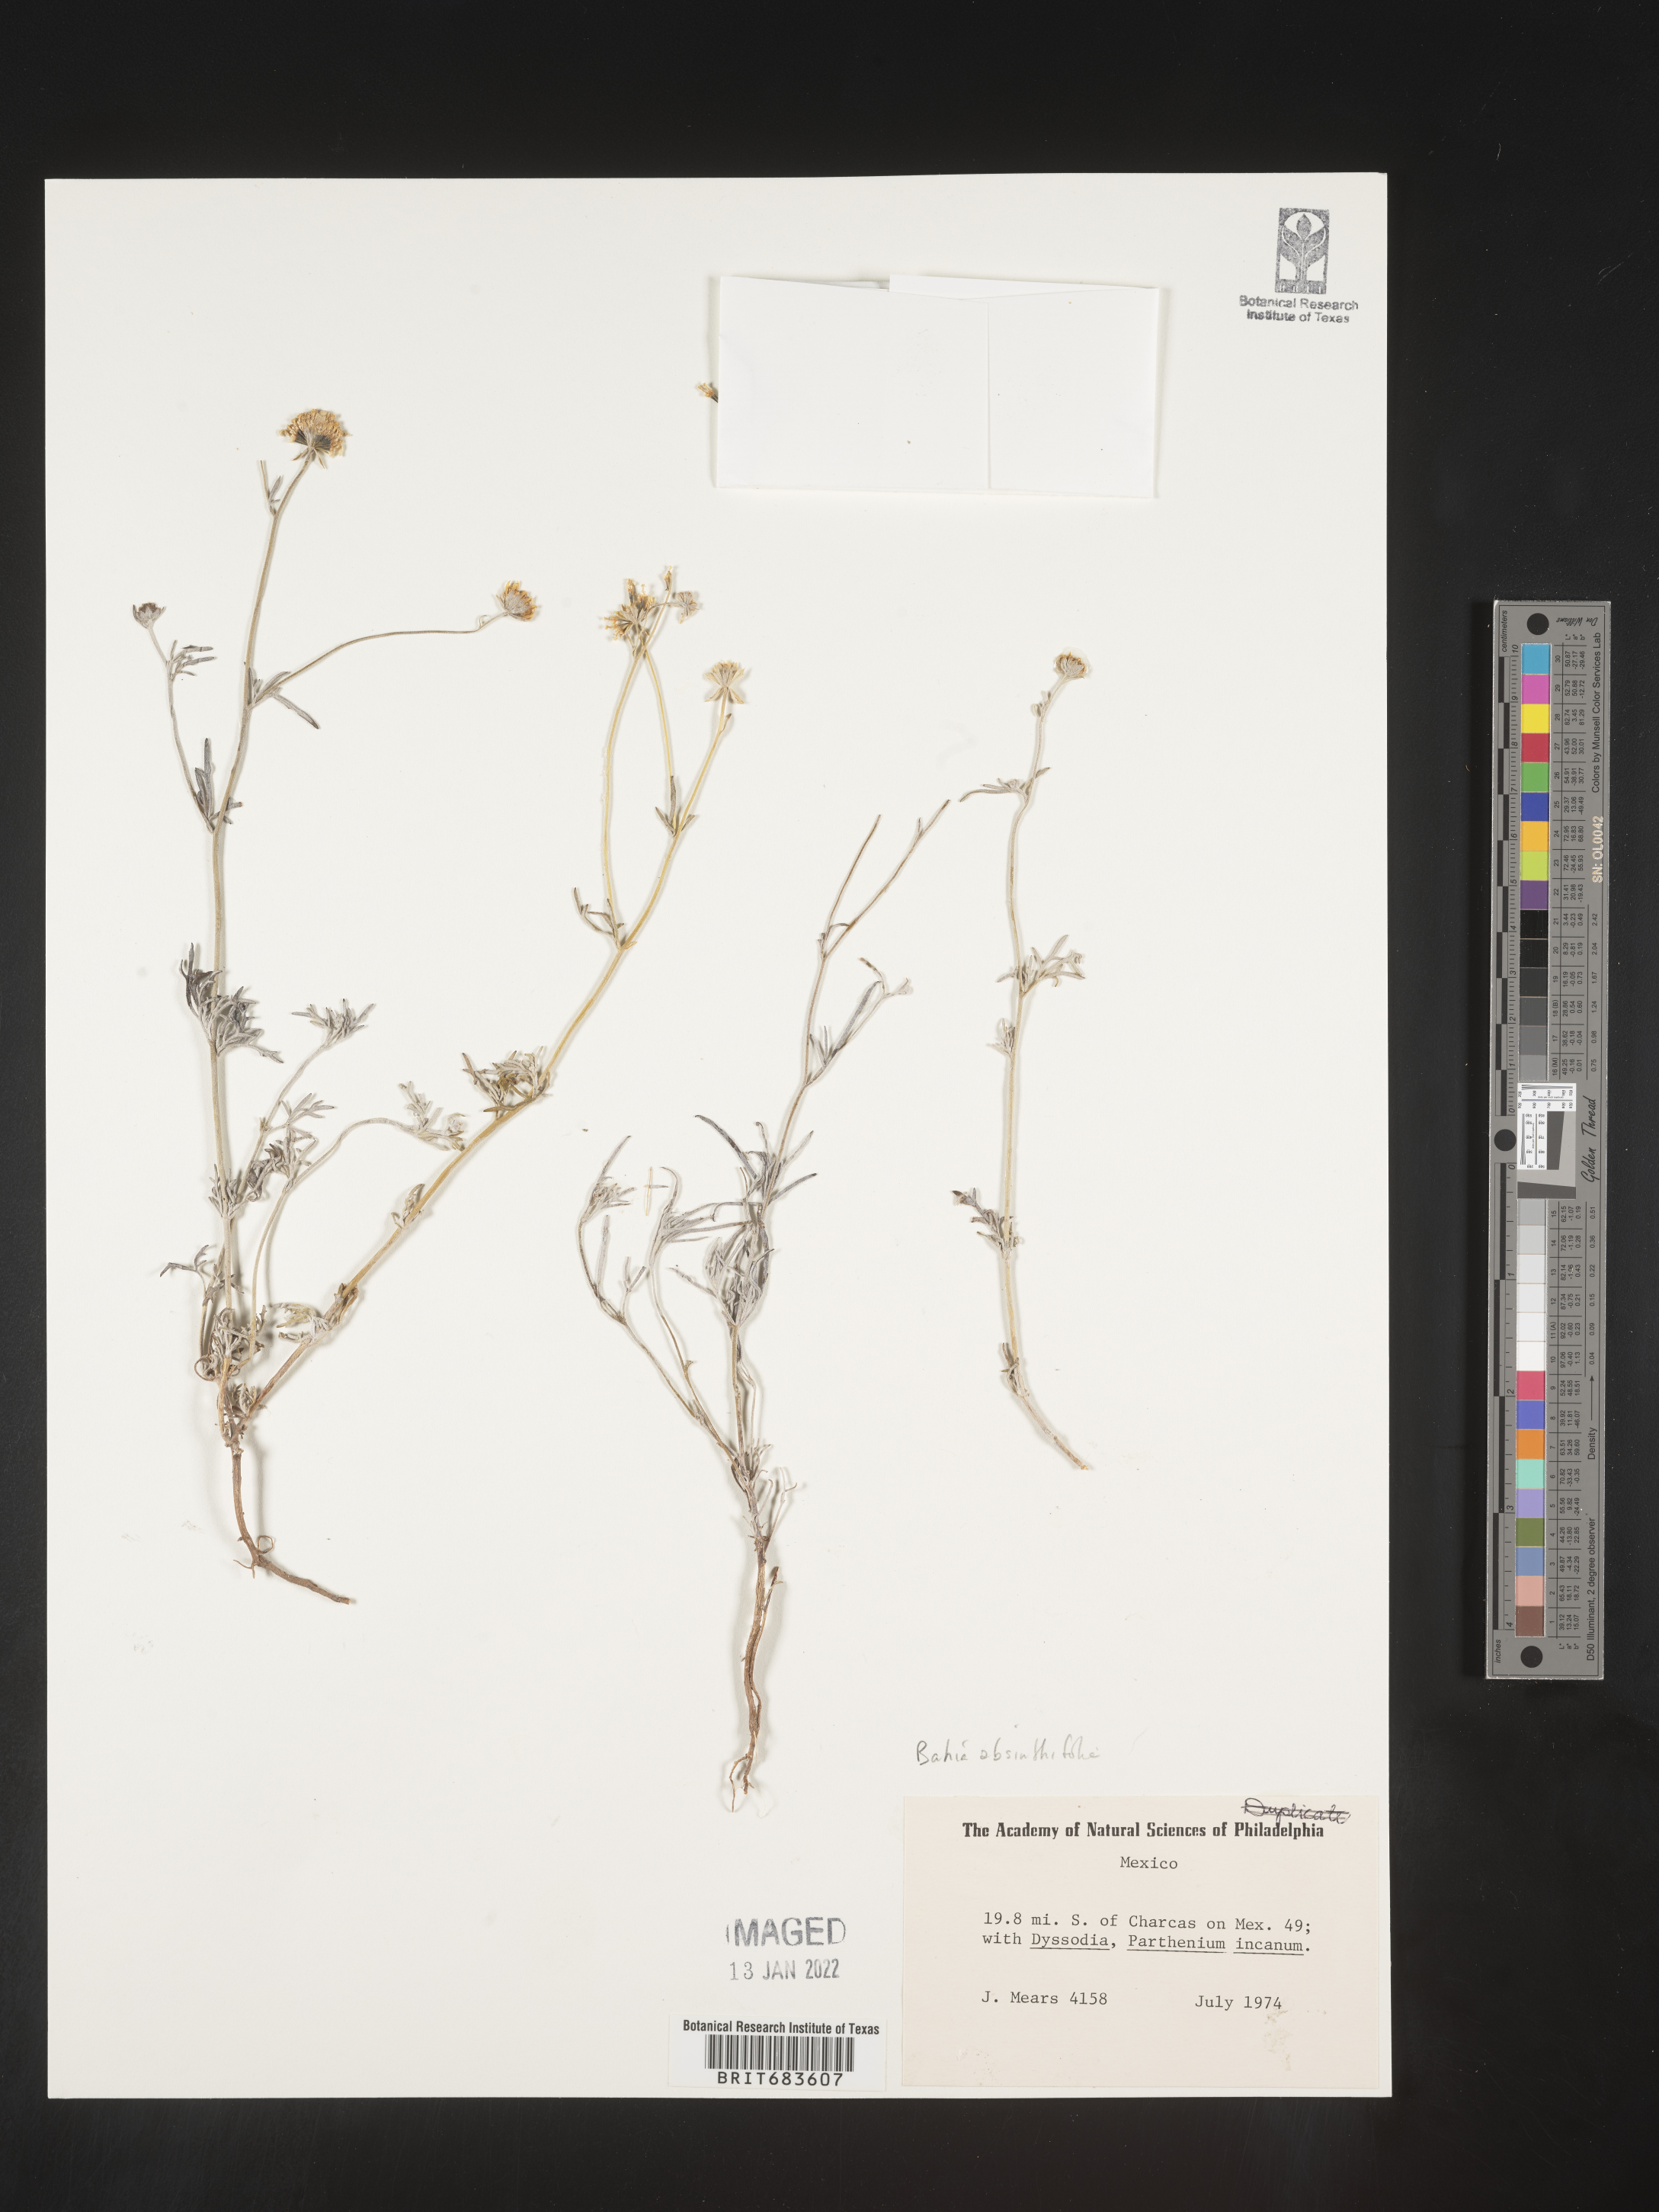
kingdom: Plantae
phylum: Tracheophyta
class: Magnoliopsida
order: Asterales
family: Asteraceae
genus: Picradeniopsis
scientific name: Picradeniopsis absinthifolia
